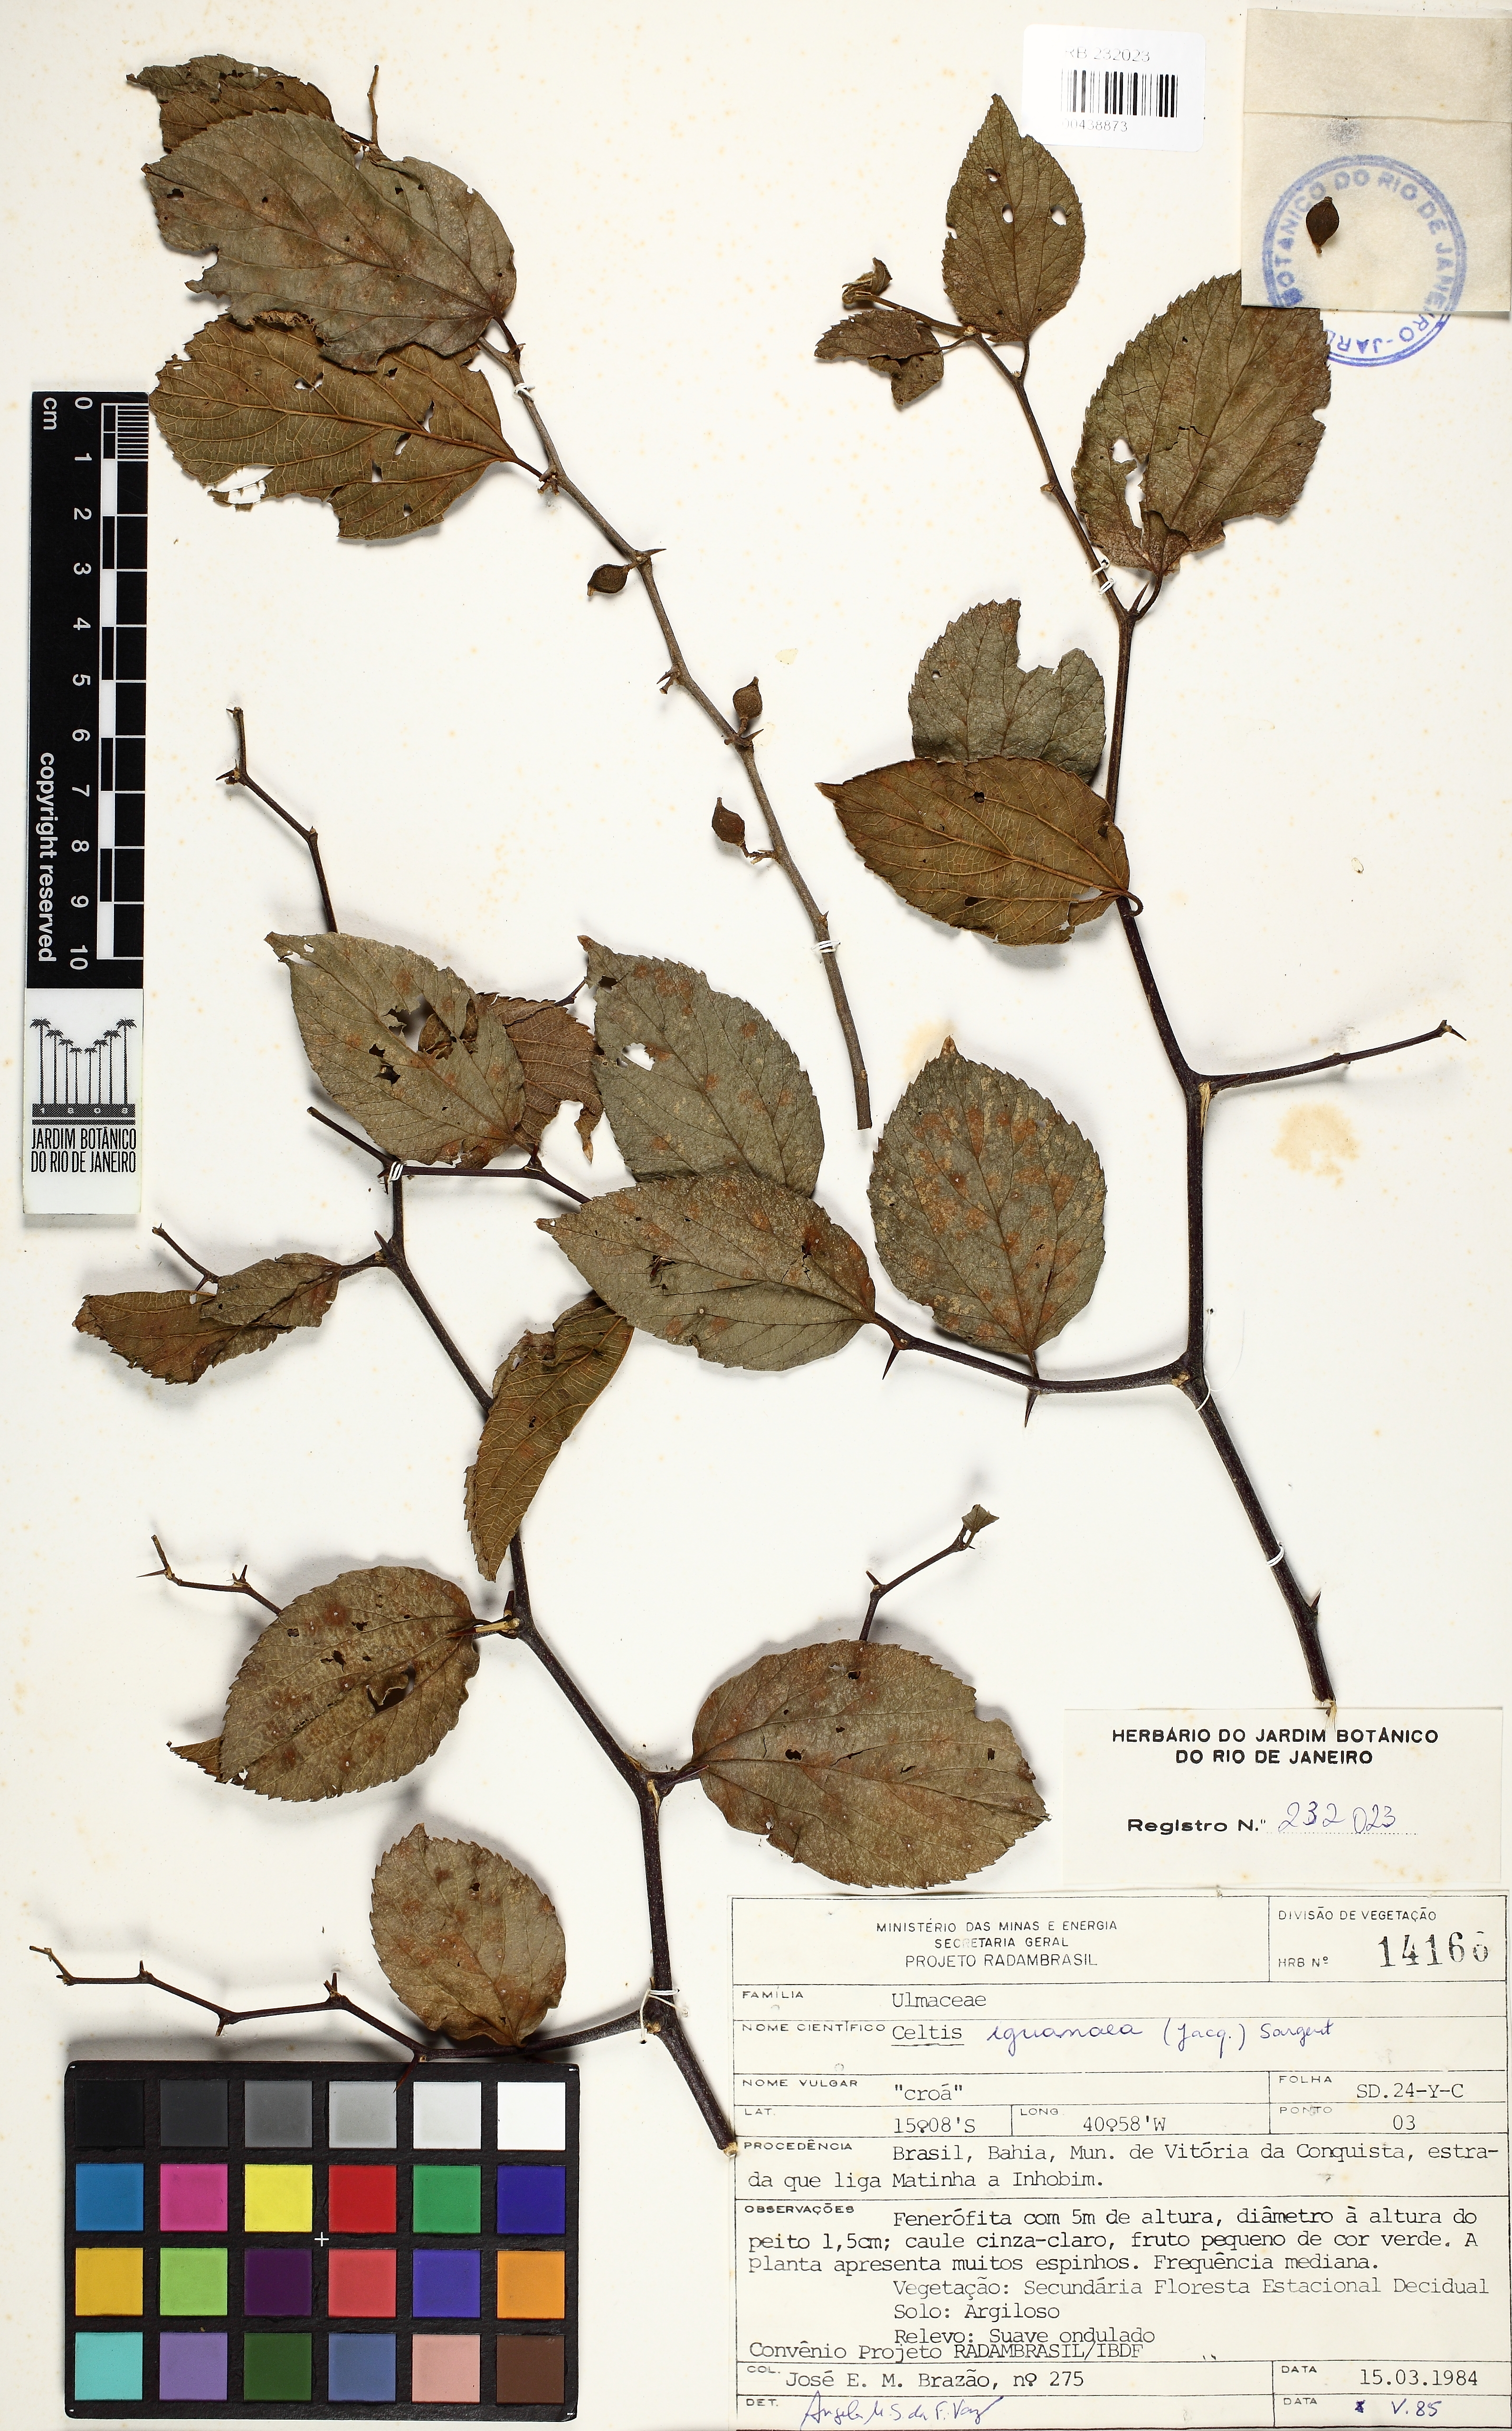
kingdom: Plantae
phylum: Tracheophyta
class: Magnoliopsida
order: Rosales
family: Cannabaceae
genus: Celtis
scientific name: Celtis iguanaea
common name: Iguana hackberry
